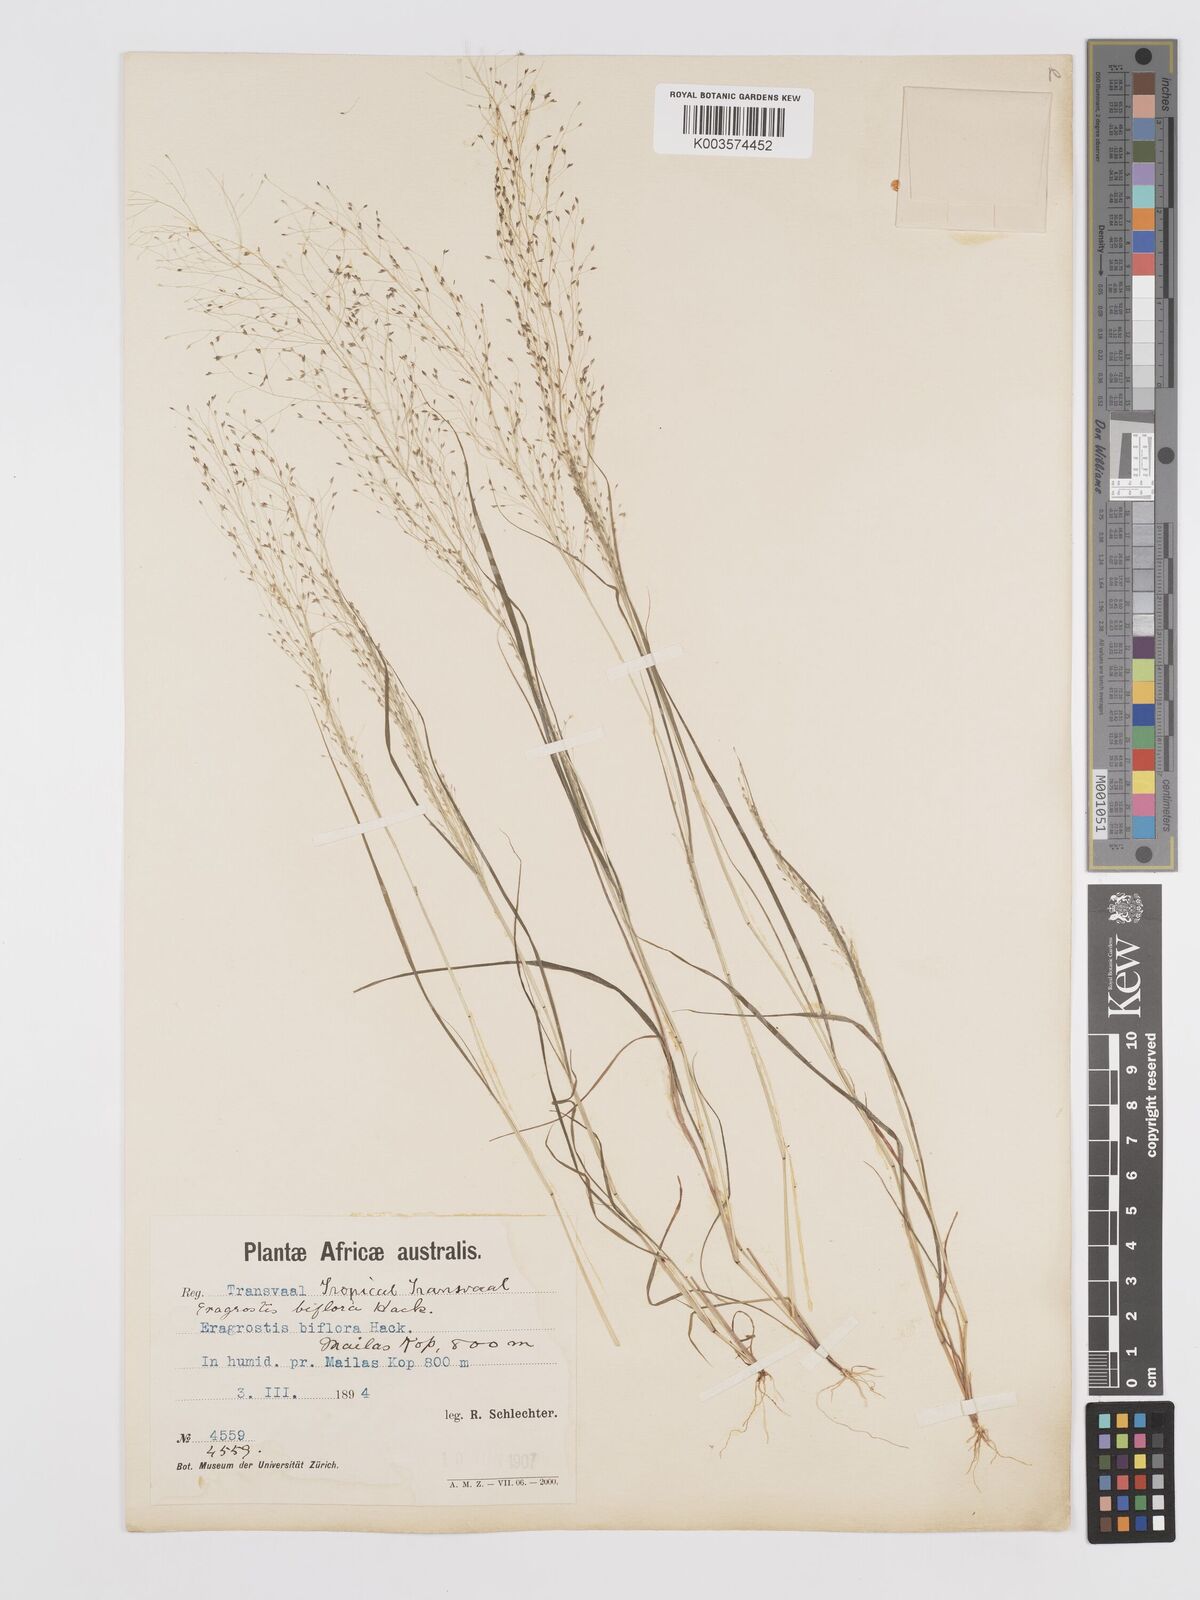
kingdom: Plantae
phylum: Tracheophyta
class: Liliopsida
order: Poales
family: Poaceae
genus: Eragrostis
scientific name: Eragrostis biflora
